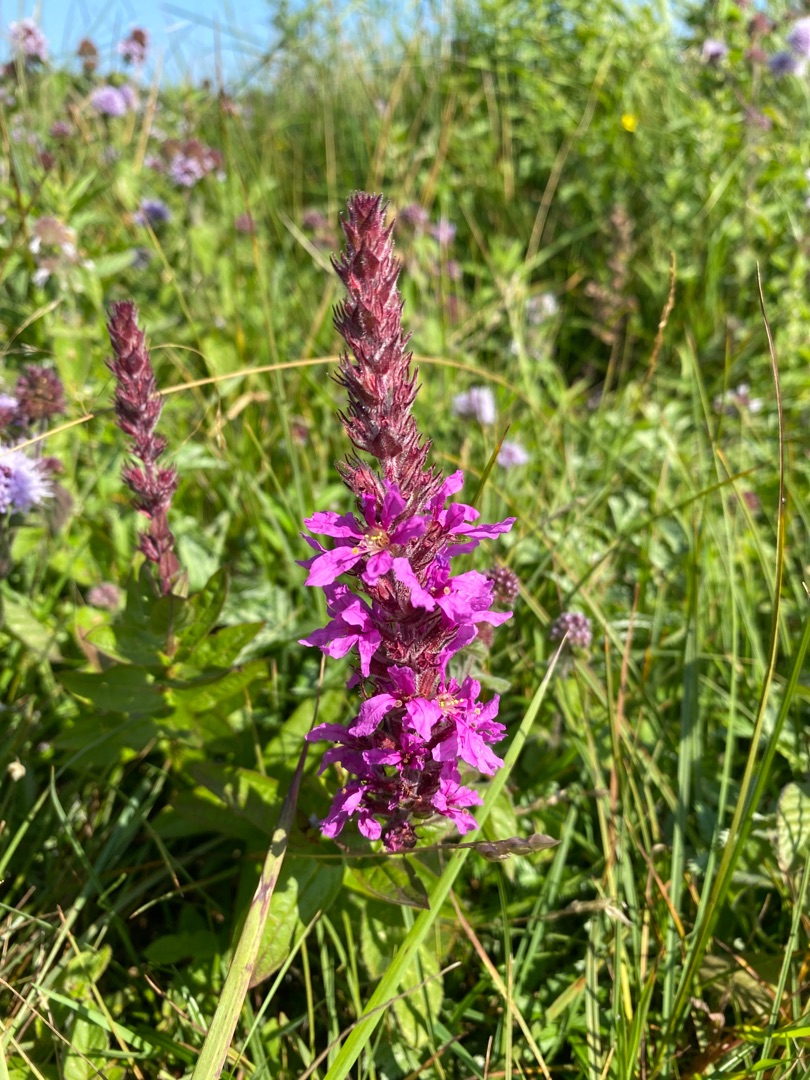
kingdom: Plantae
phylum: Tracheophyta
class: Magnoliopsida
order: Myrtales
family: Lythraceae
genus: Lythrum
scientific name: Lythrum salicaria
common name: Kattehale
